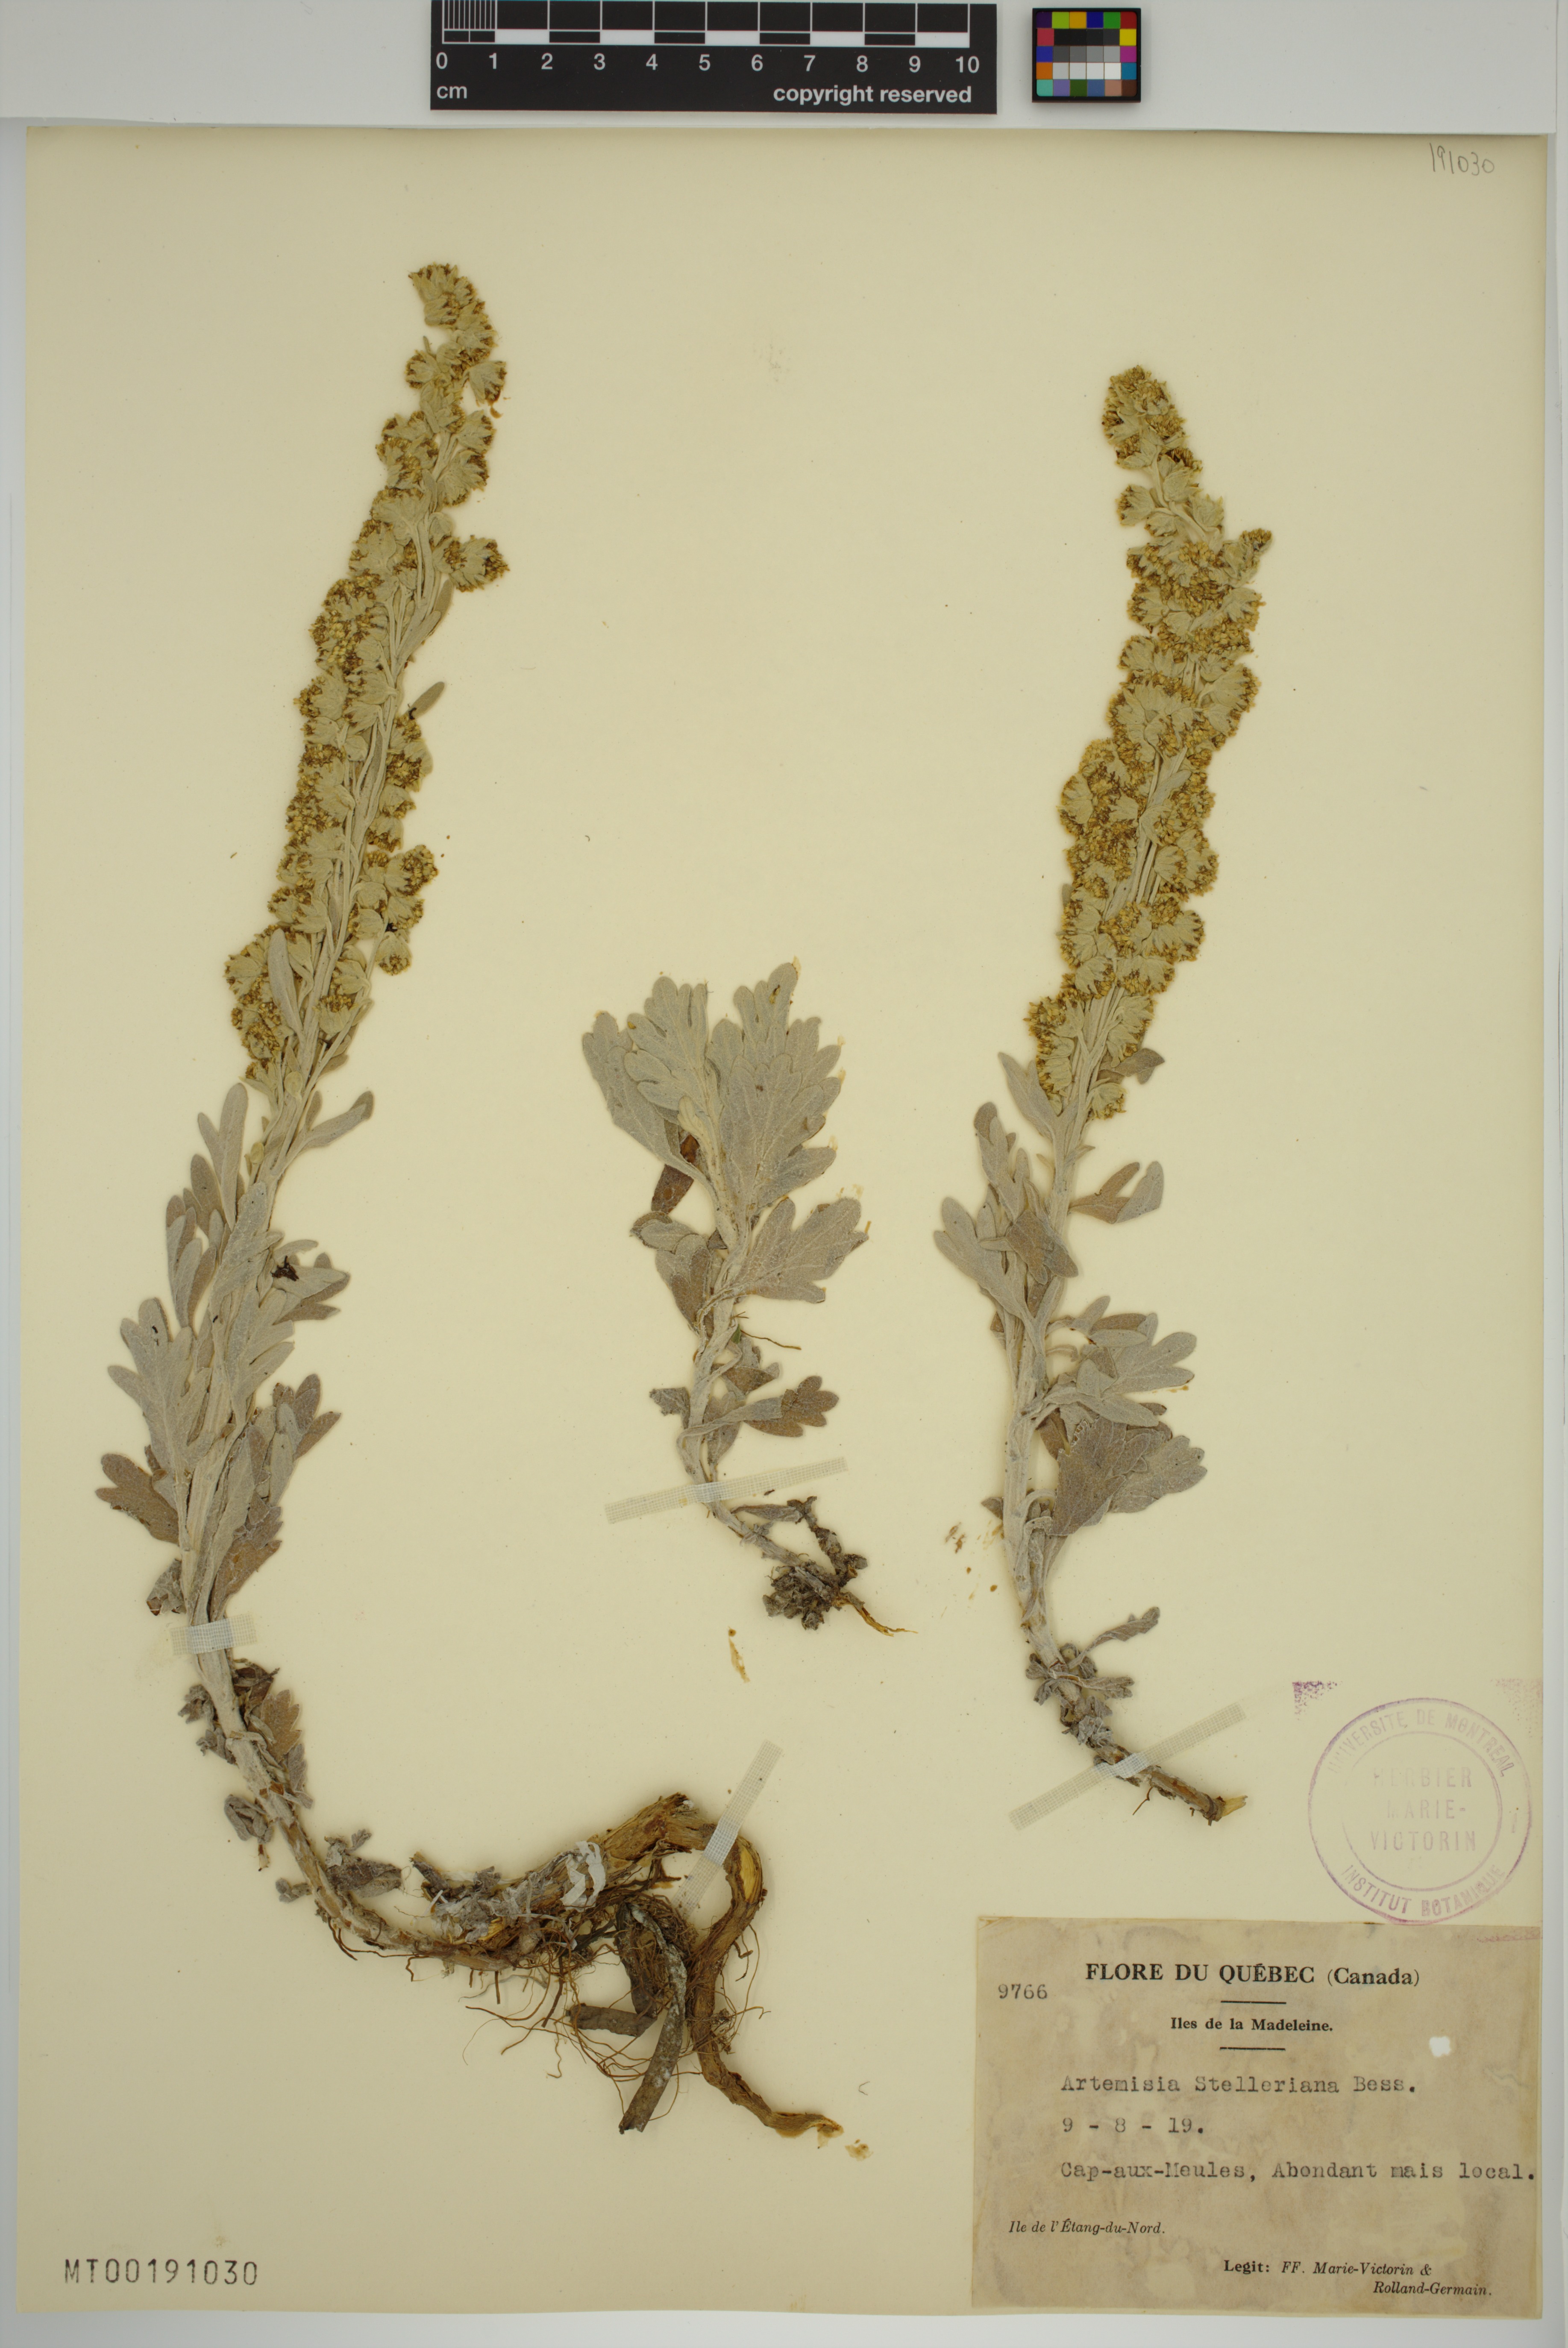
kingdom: Plantae
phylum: Tracheophyta
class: Magnoliopsida
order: Asterales
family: Asteraceae
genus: Artemisia
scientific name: Artemisia stelleriana
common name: Beach wormwood
